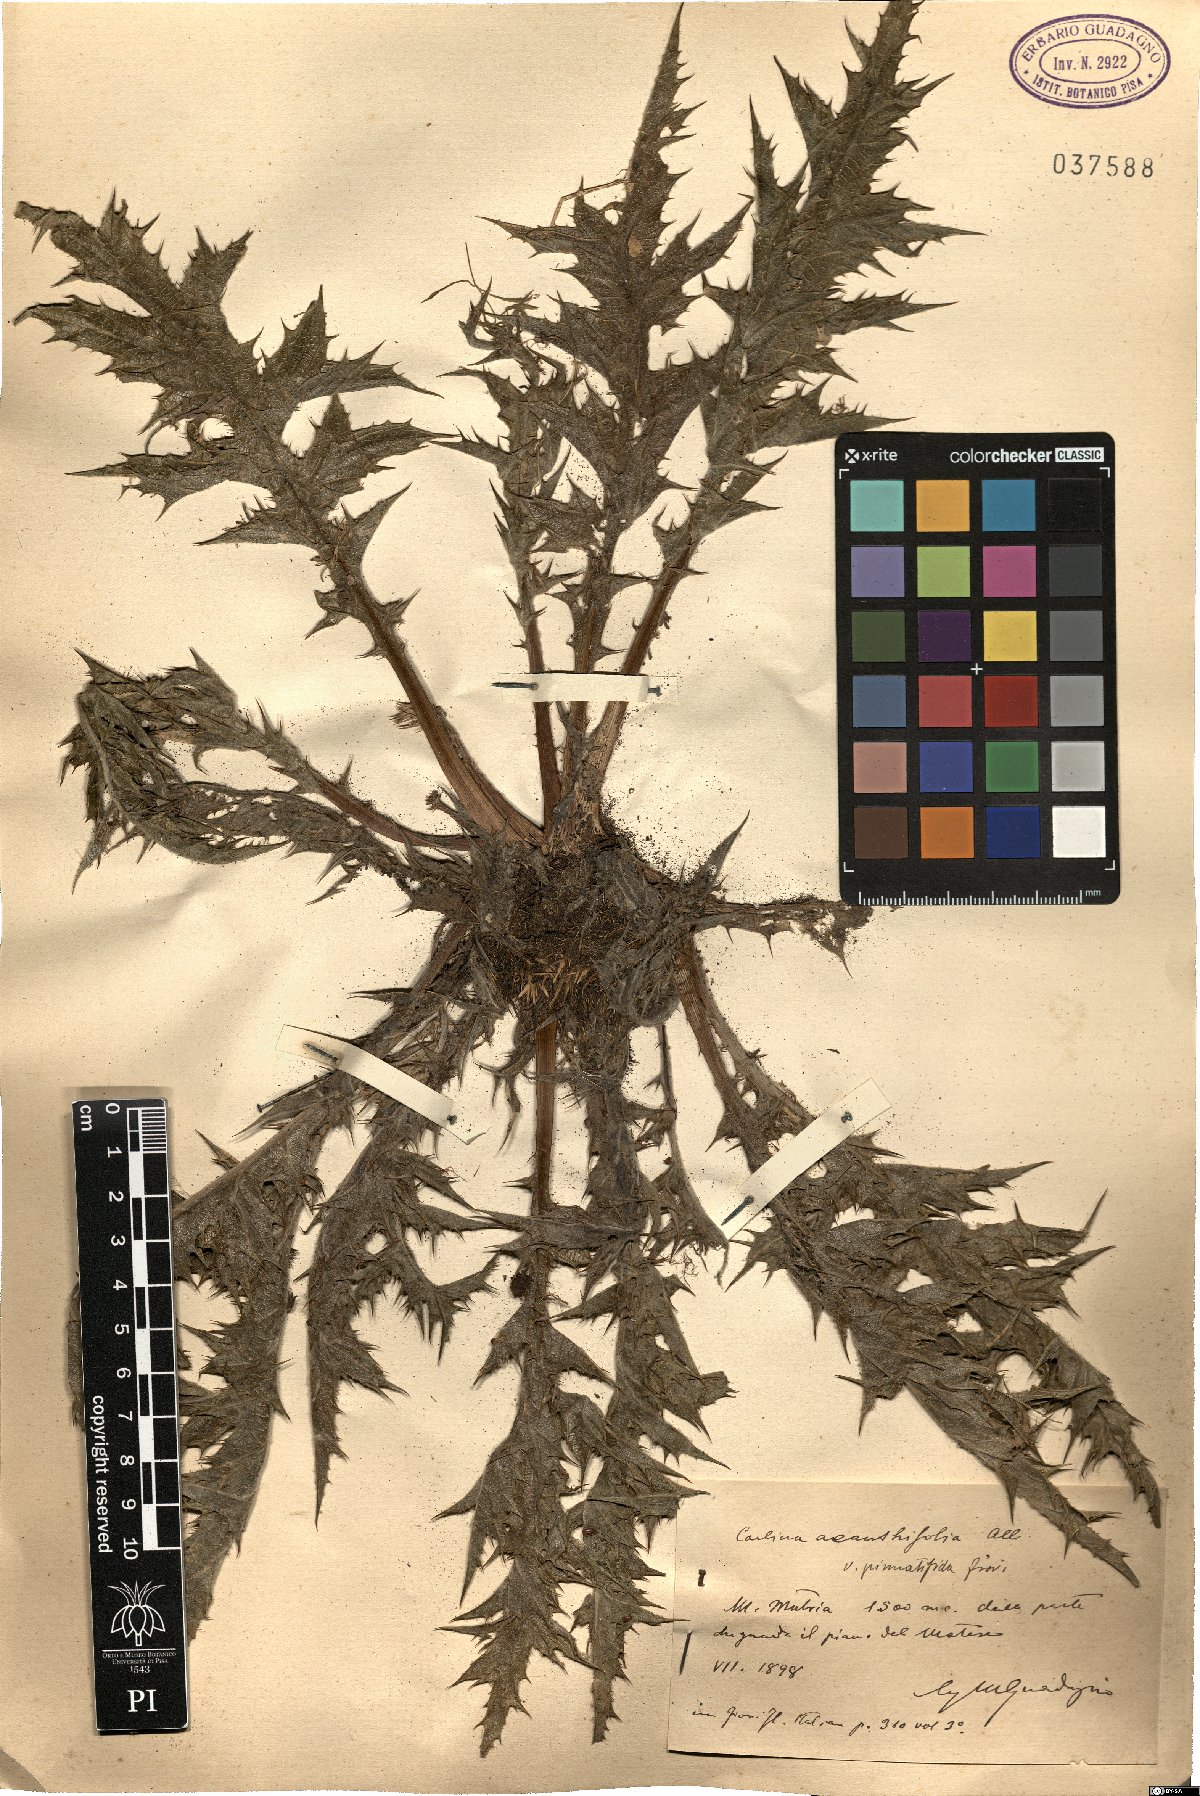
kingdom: Plantae
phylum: Tracheophyta
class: Magnoliopsida
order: Asterales
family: Asteraceae
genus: Carlina
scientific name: Carlina acanthifolia
